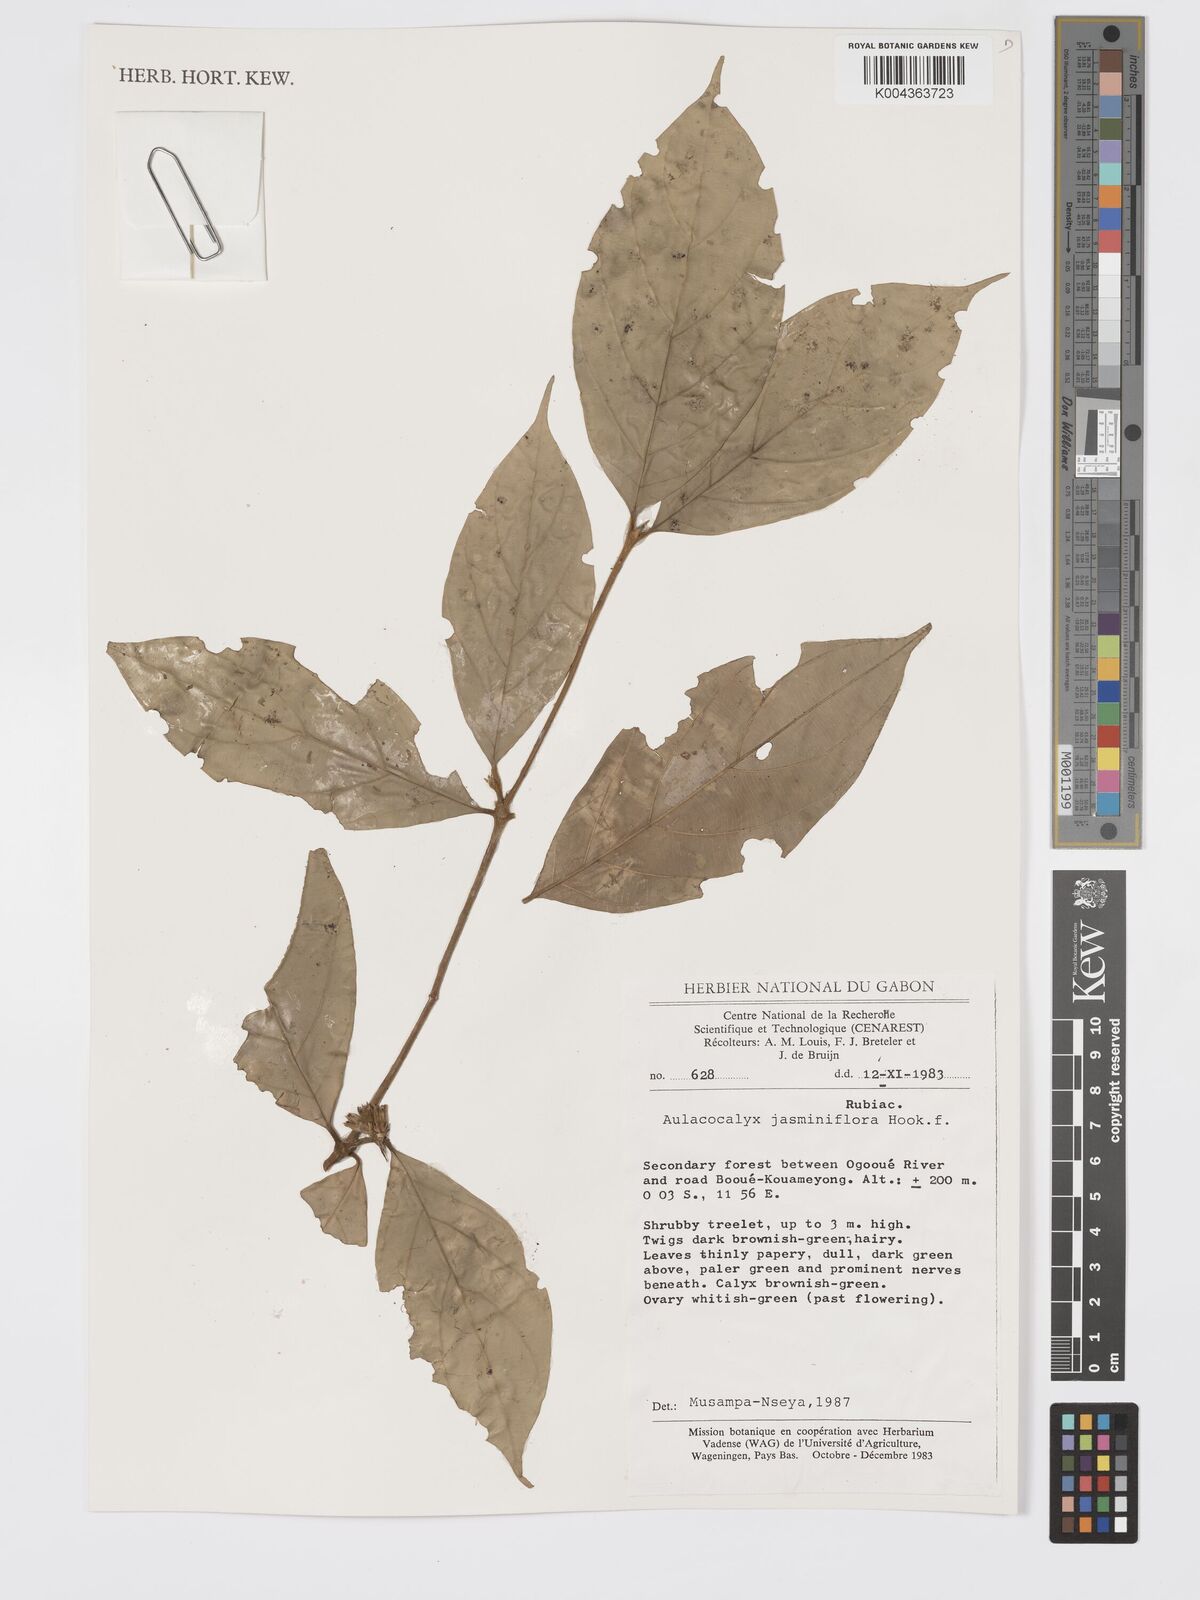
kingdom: Plantae
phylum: Tracheophyta
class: Magnoliopsida
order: Gentianales
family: Rubiaceae
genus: Aulacocalyx
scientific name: Aulacocalyx jasminiflora
